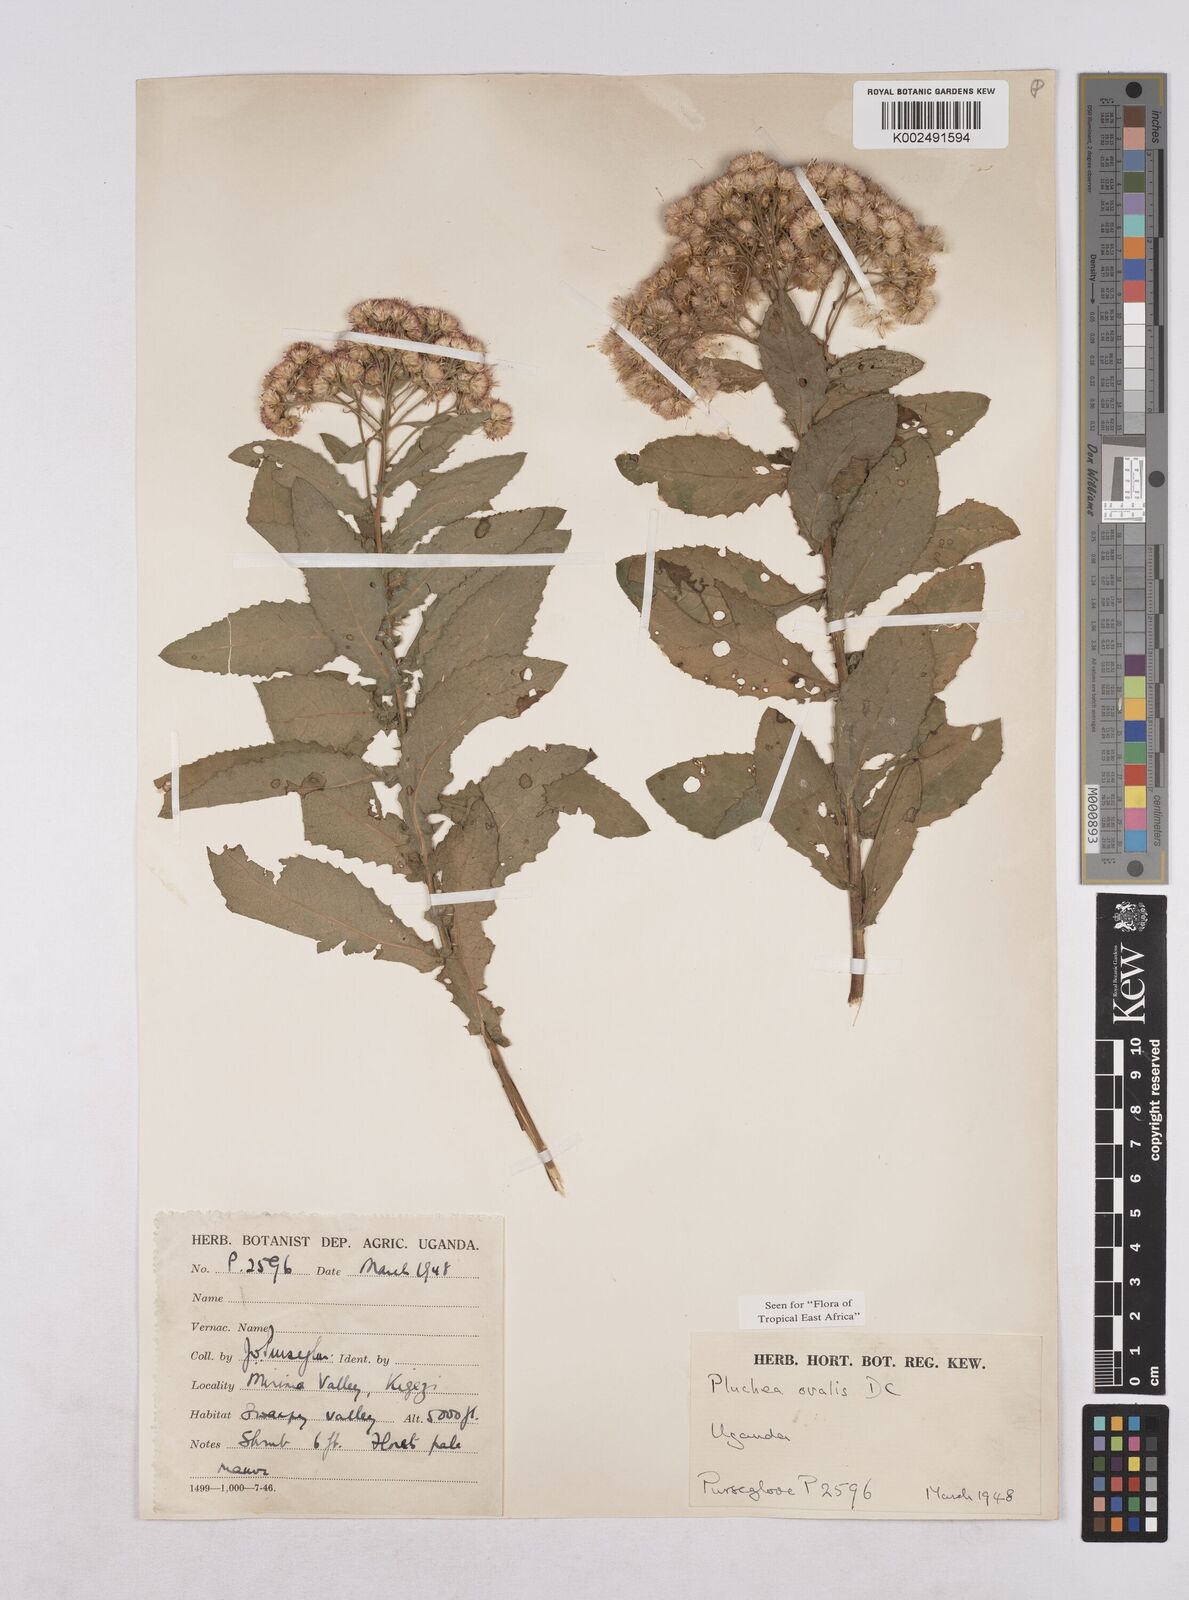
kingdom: Plantae
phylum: Tracheophyta
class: Magnoliopsida
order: Asterales
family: Asteraceae
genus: Pluchea
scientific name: Pluchea ovalis
